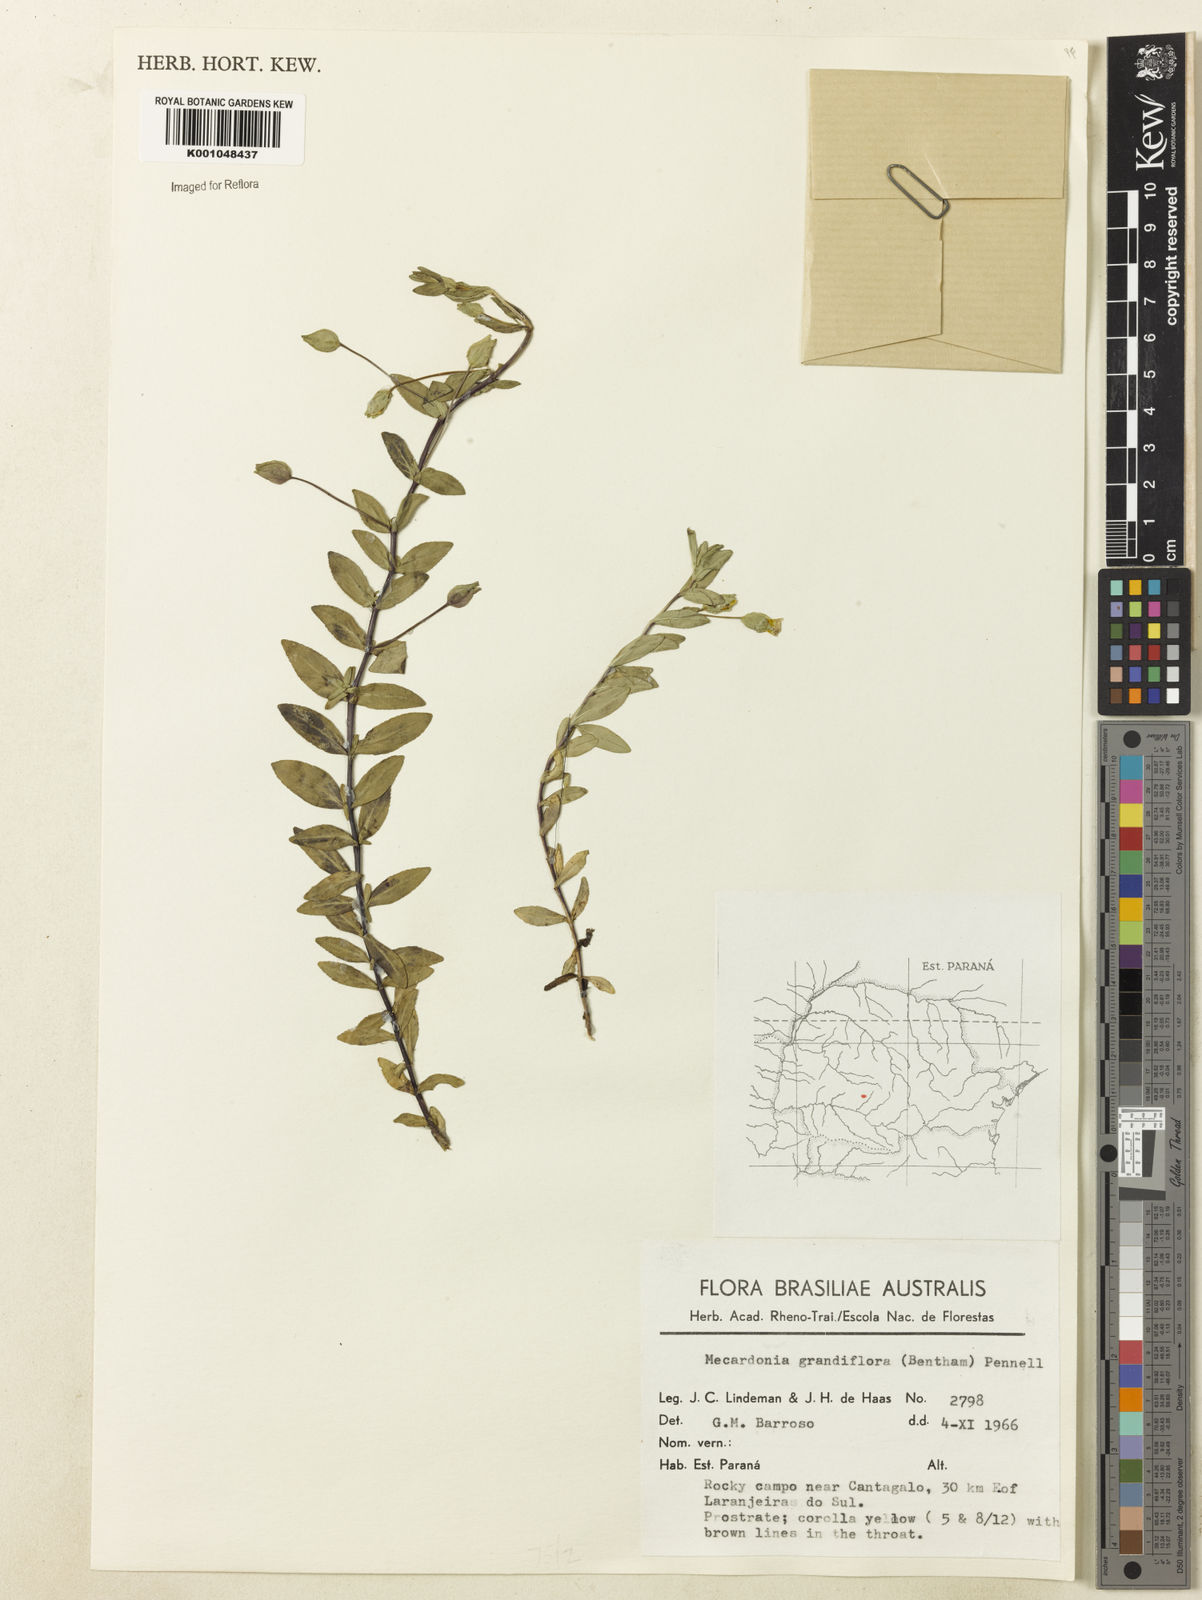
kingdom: Plantae
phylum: Tracheophyta
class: Magnoliopsida
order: Lamiales
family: Plantaginaceae
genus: Mecardonia
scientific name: Mecardonia grandiflora
